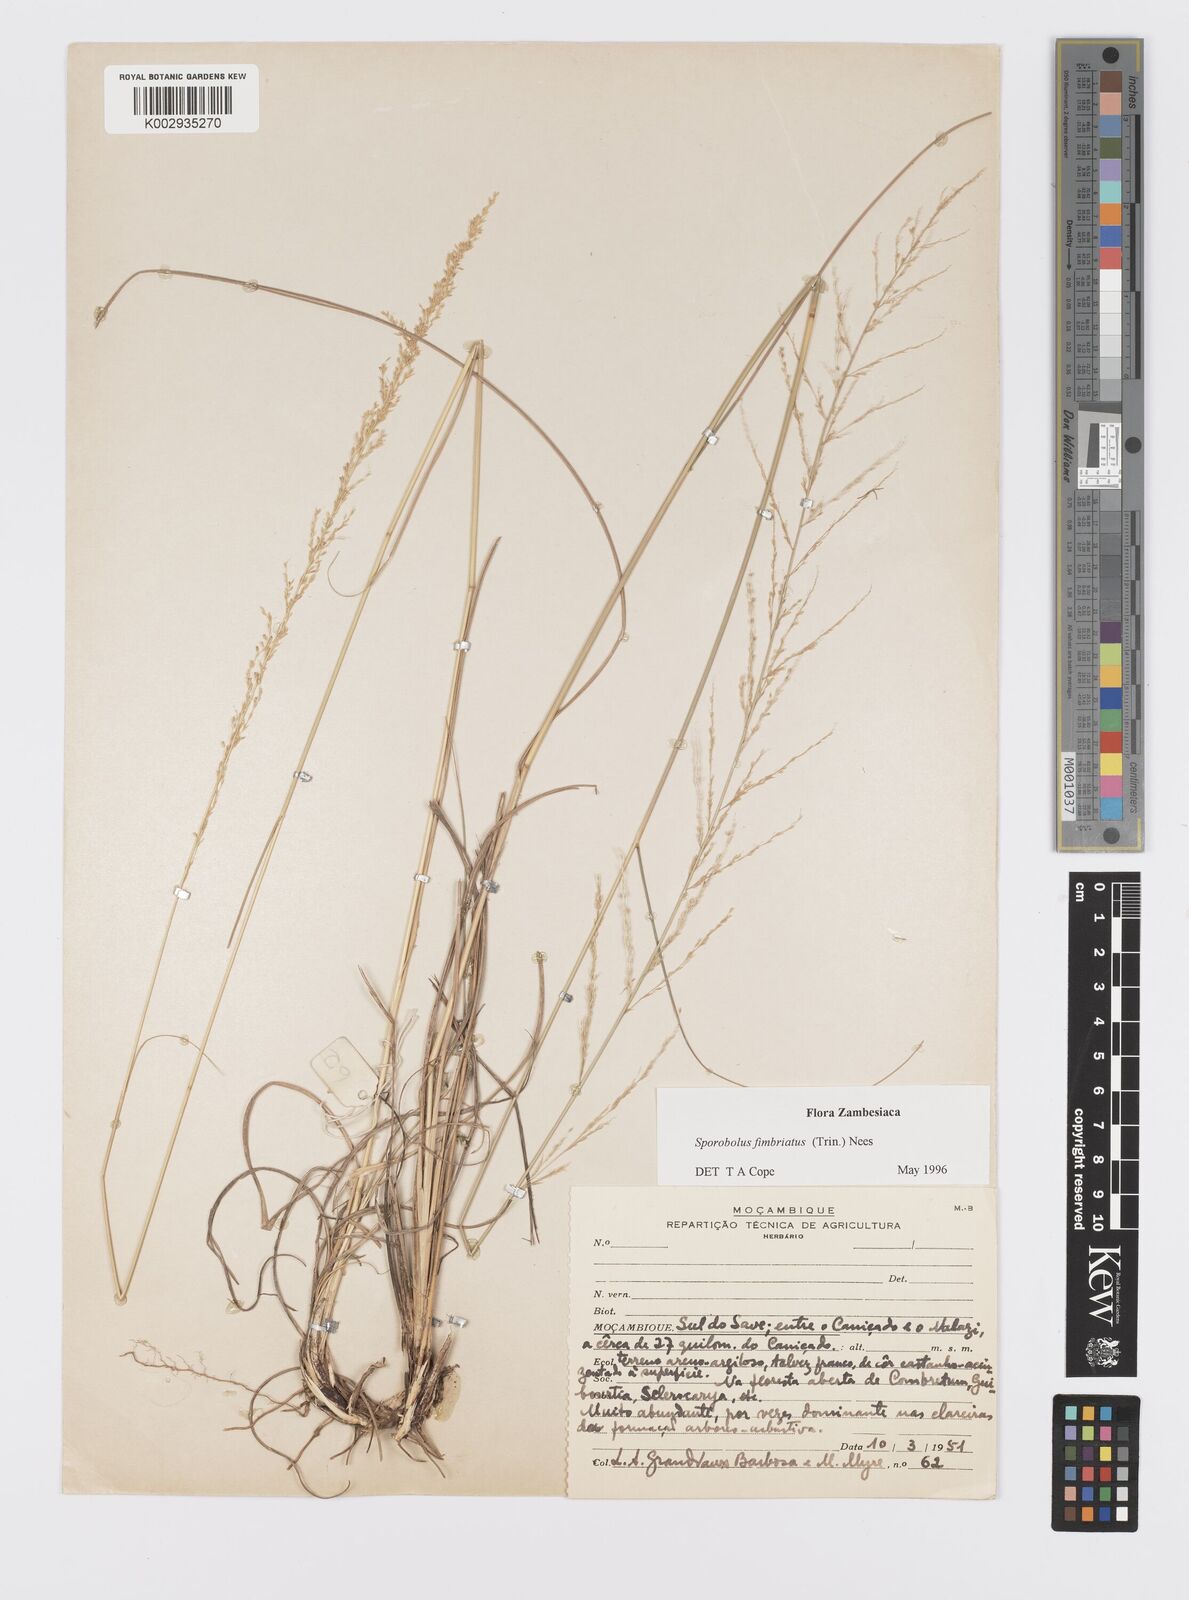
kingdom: Plantae
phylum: Tracheophyta
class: Liliopsida
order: Poales
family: Poaceae
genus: Sporobolus
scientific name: Sporobolus fimbriatus
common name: Fringed dropseed
